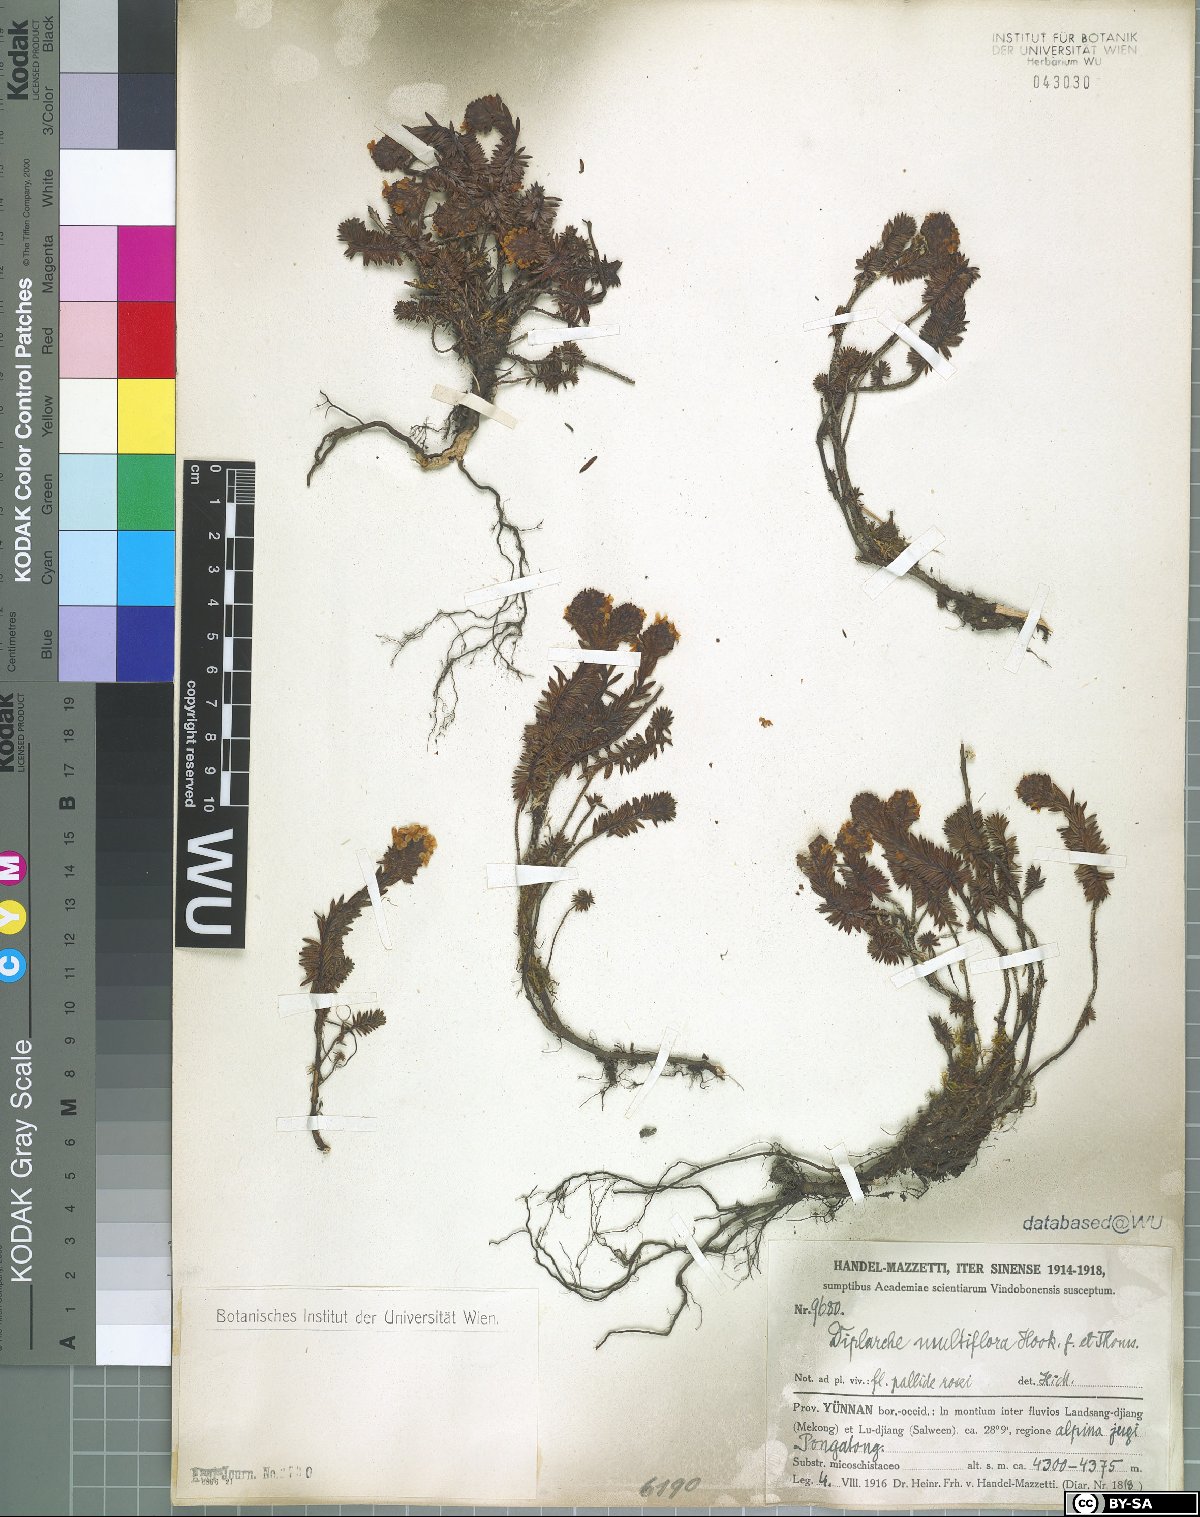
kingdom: Plantae
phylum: Tracheophyta
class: Magnoliopsida
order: Ericales
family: Ericaceae
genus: Rhododendron
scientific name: Rhododendron chamberlainii
